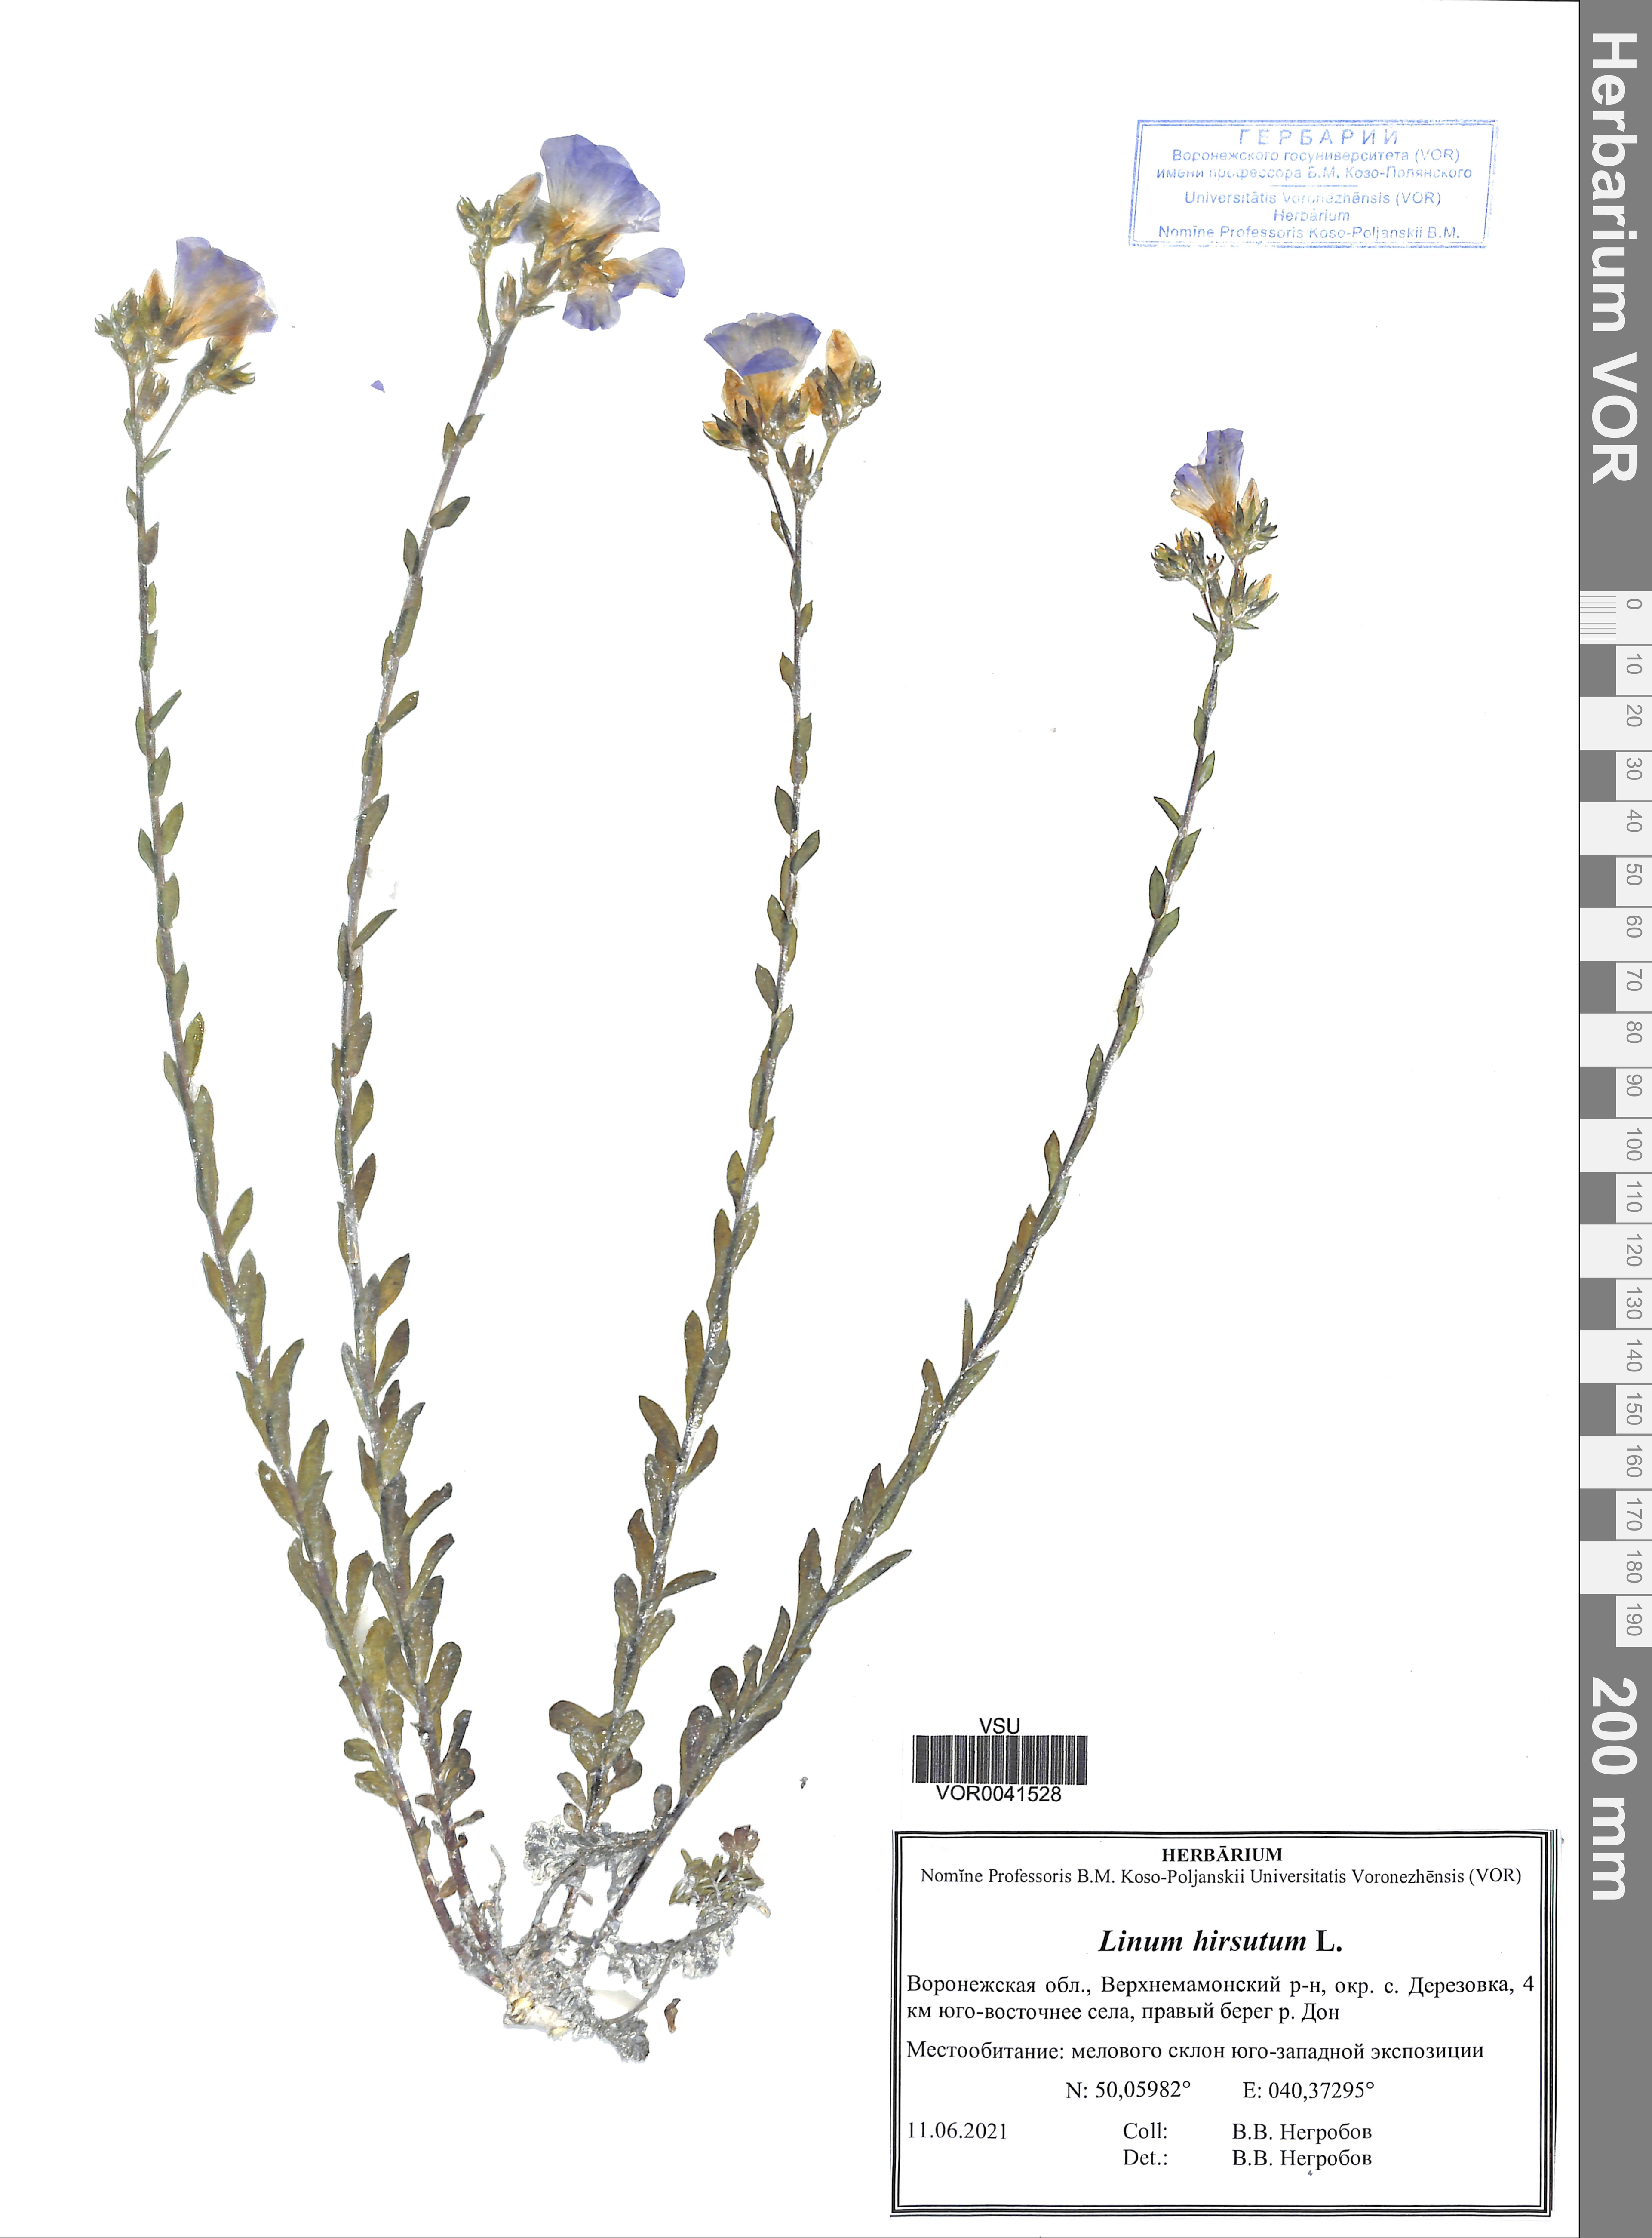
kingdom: Plantae
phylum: Tracheophyta
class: Magnoliopsida
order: Malpighiales
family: Linaceae
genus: Linum
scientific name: Linum hirsutum
